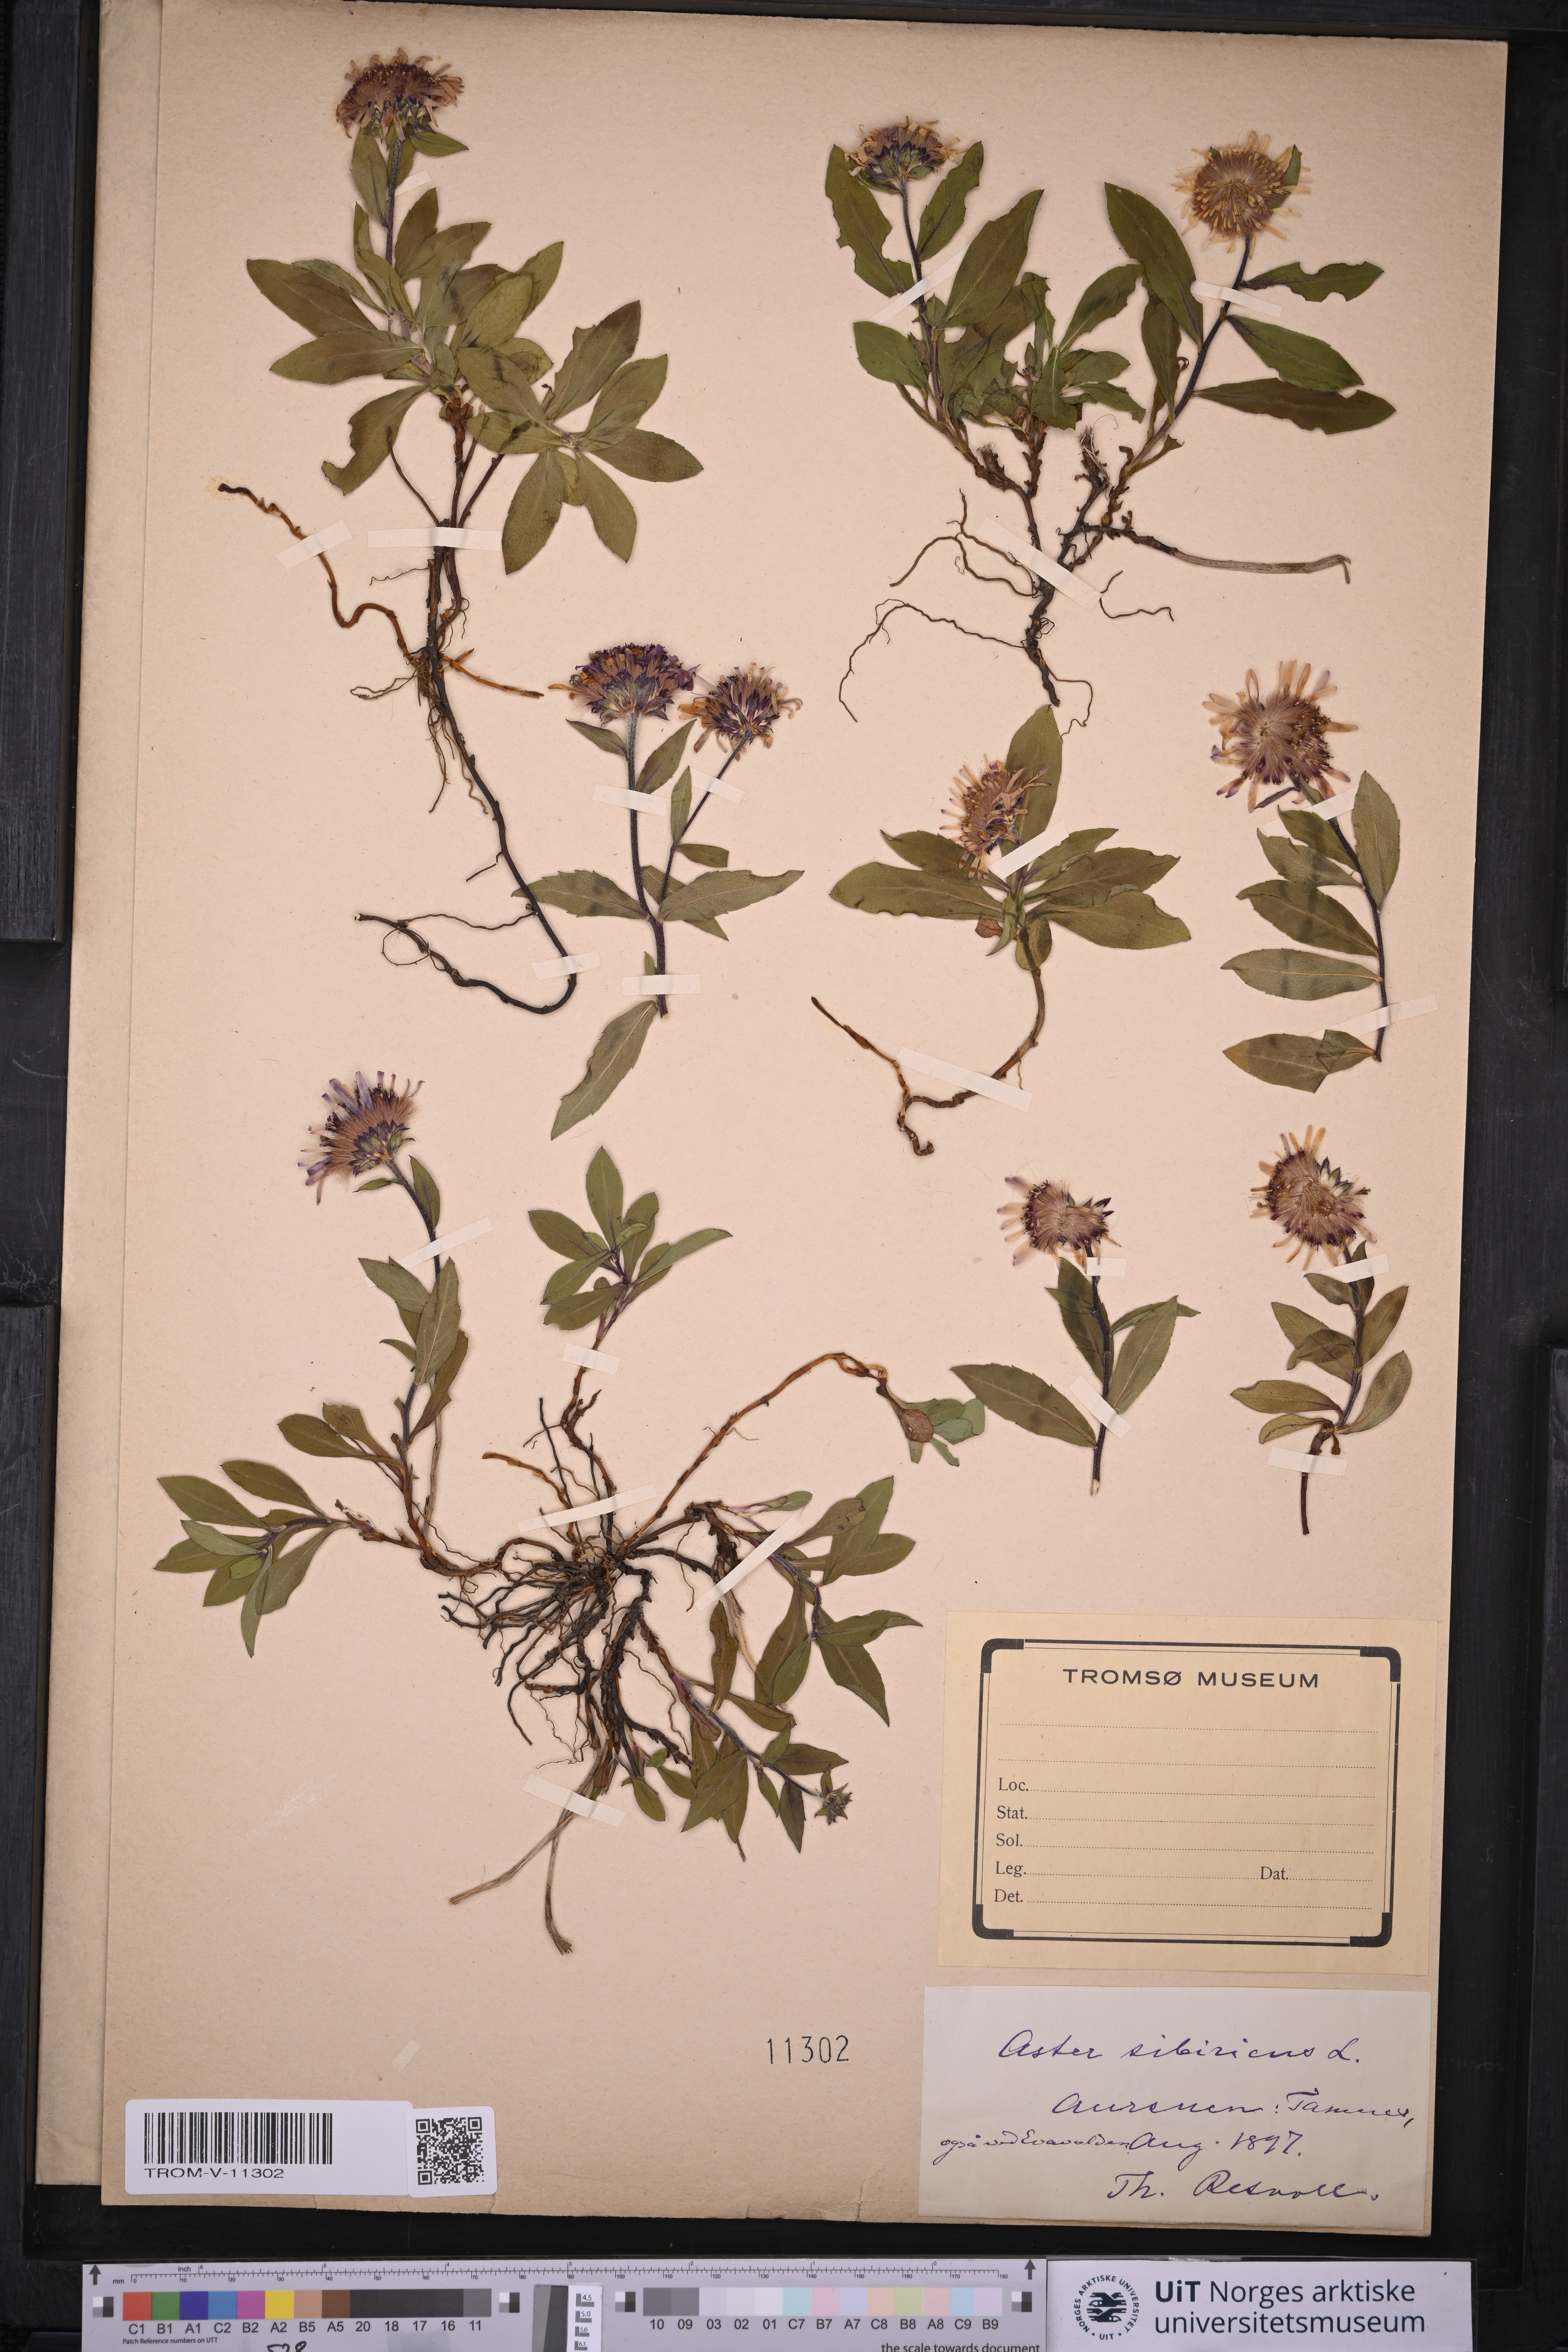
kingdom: Plantae
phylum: Tracheophyta
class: Magnoliopsida
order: Asterales
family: Asteraceae
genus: Eurybia
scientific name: Eurybia sibirica
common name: Arctic aster
